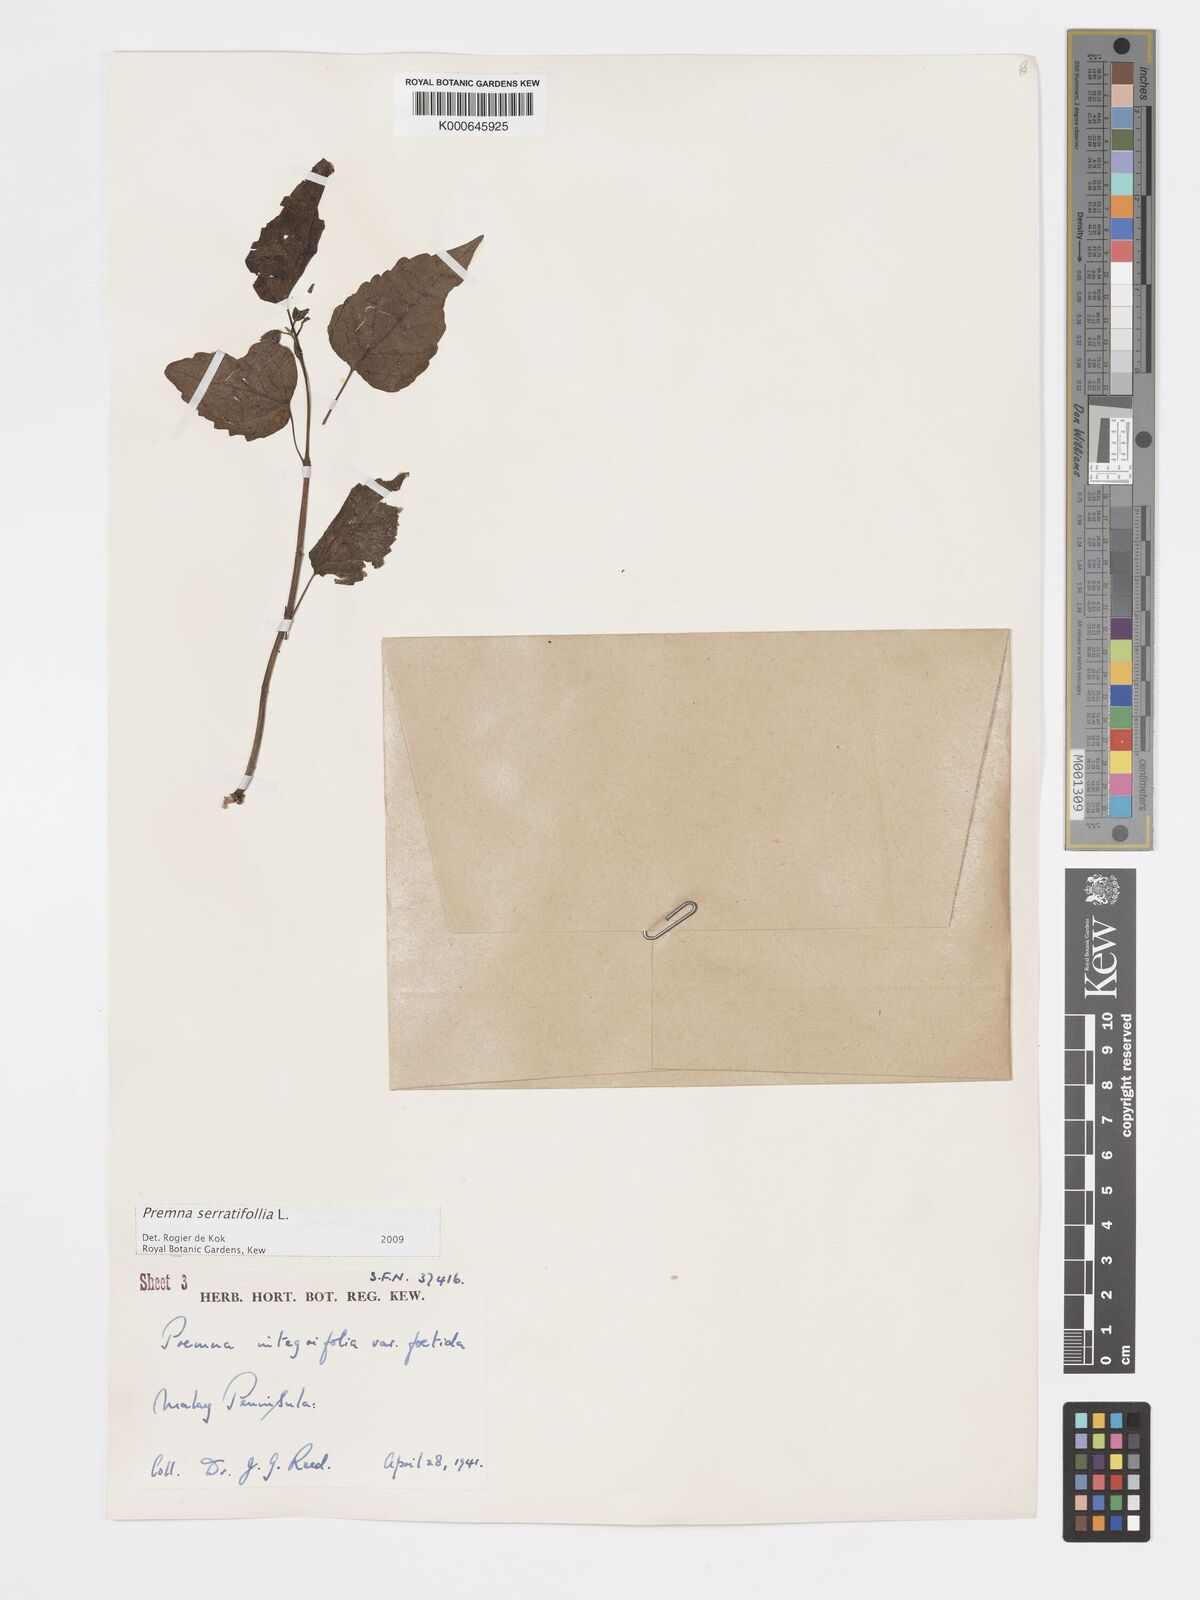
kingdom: Plantae
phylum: Tracheophyta
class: Magnoliopsida
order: Lamiales
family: Lamiaceae
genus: Premna
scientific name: Premna serratifolia
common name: Bastard guelder
